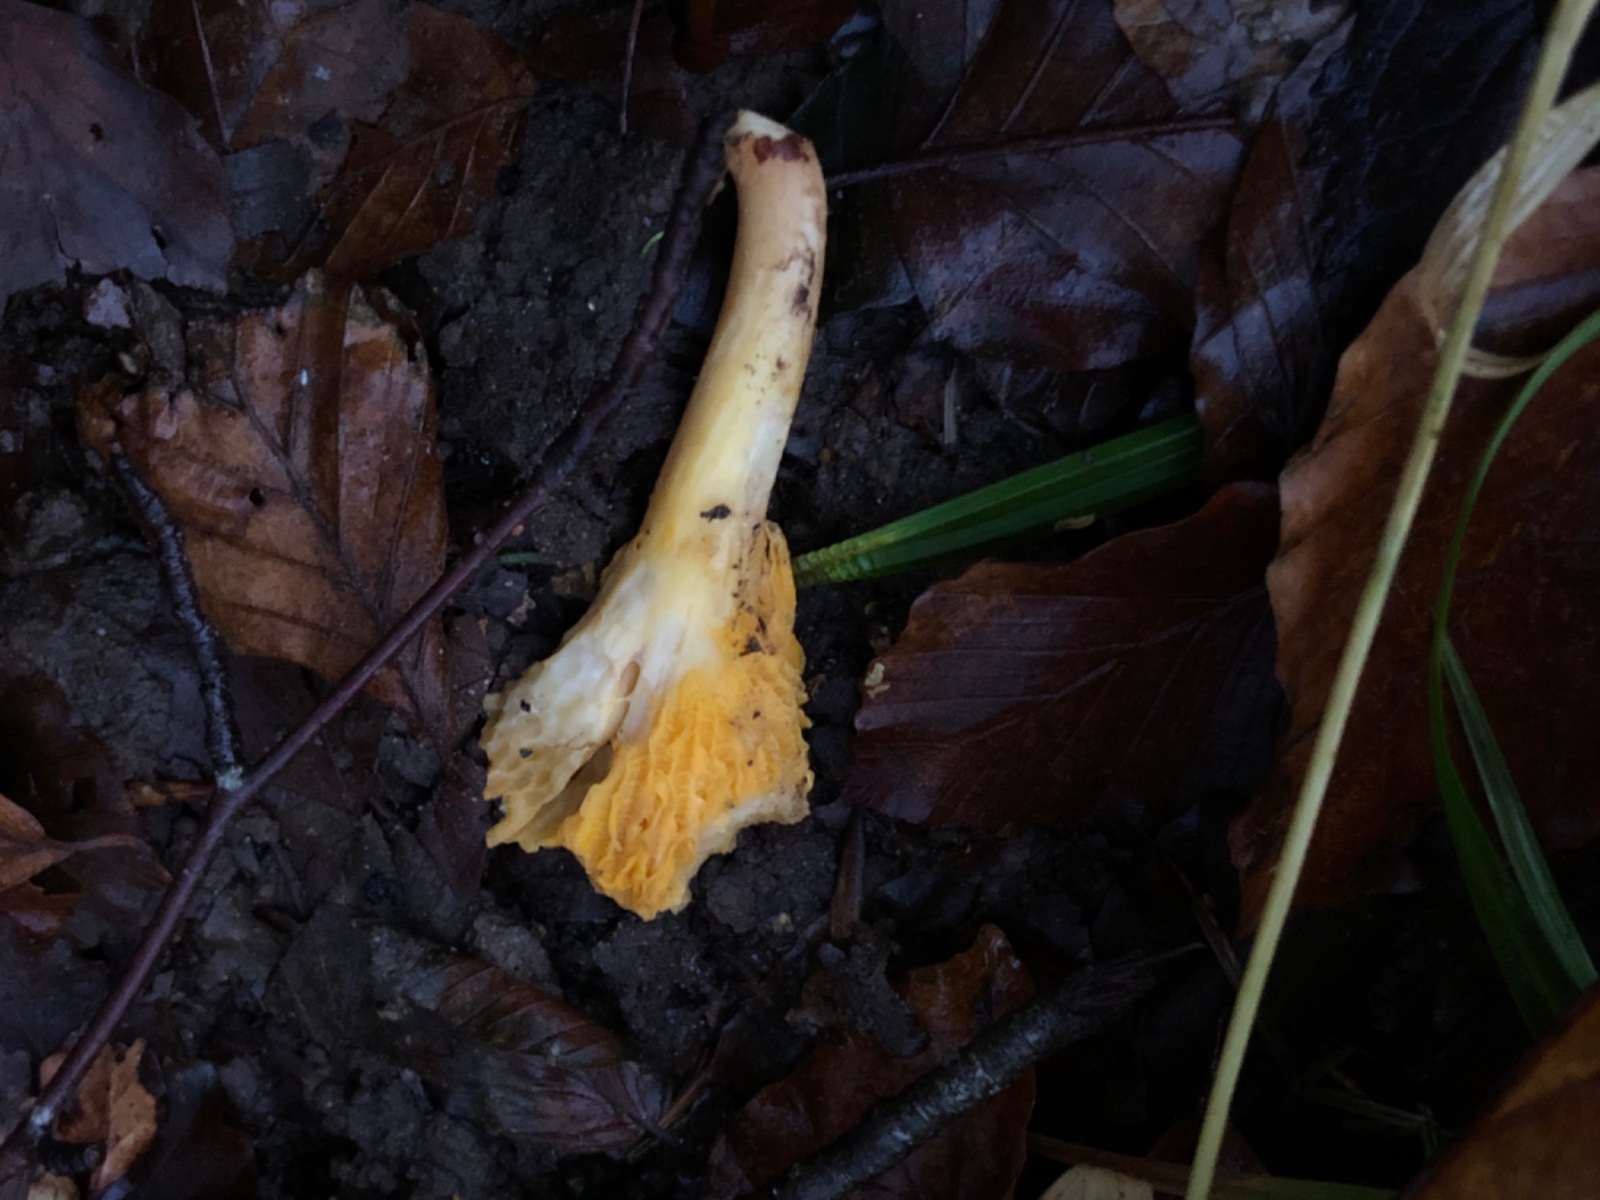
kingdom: Fungi
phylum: Basidiomycota
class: Agaricomycetes
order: Cantharellales
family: Hydnaceae
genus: Cantharellus
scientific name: Cantharellus cibarius
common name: almindelig kantarel
